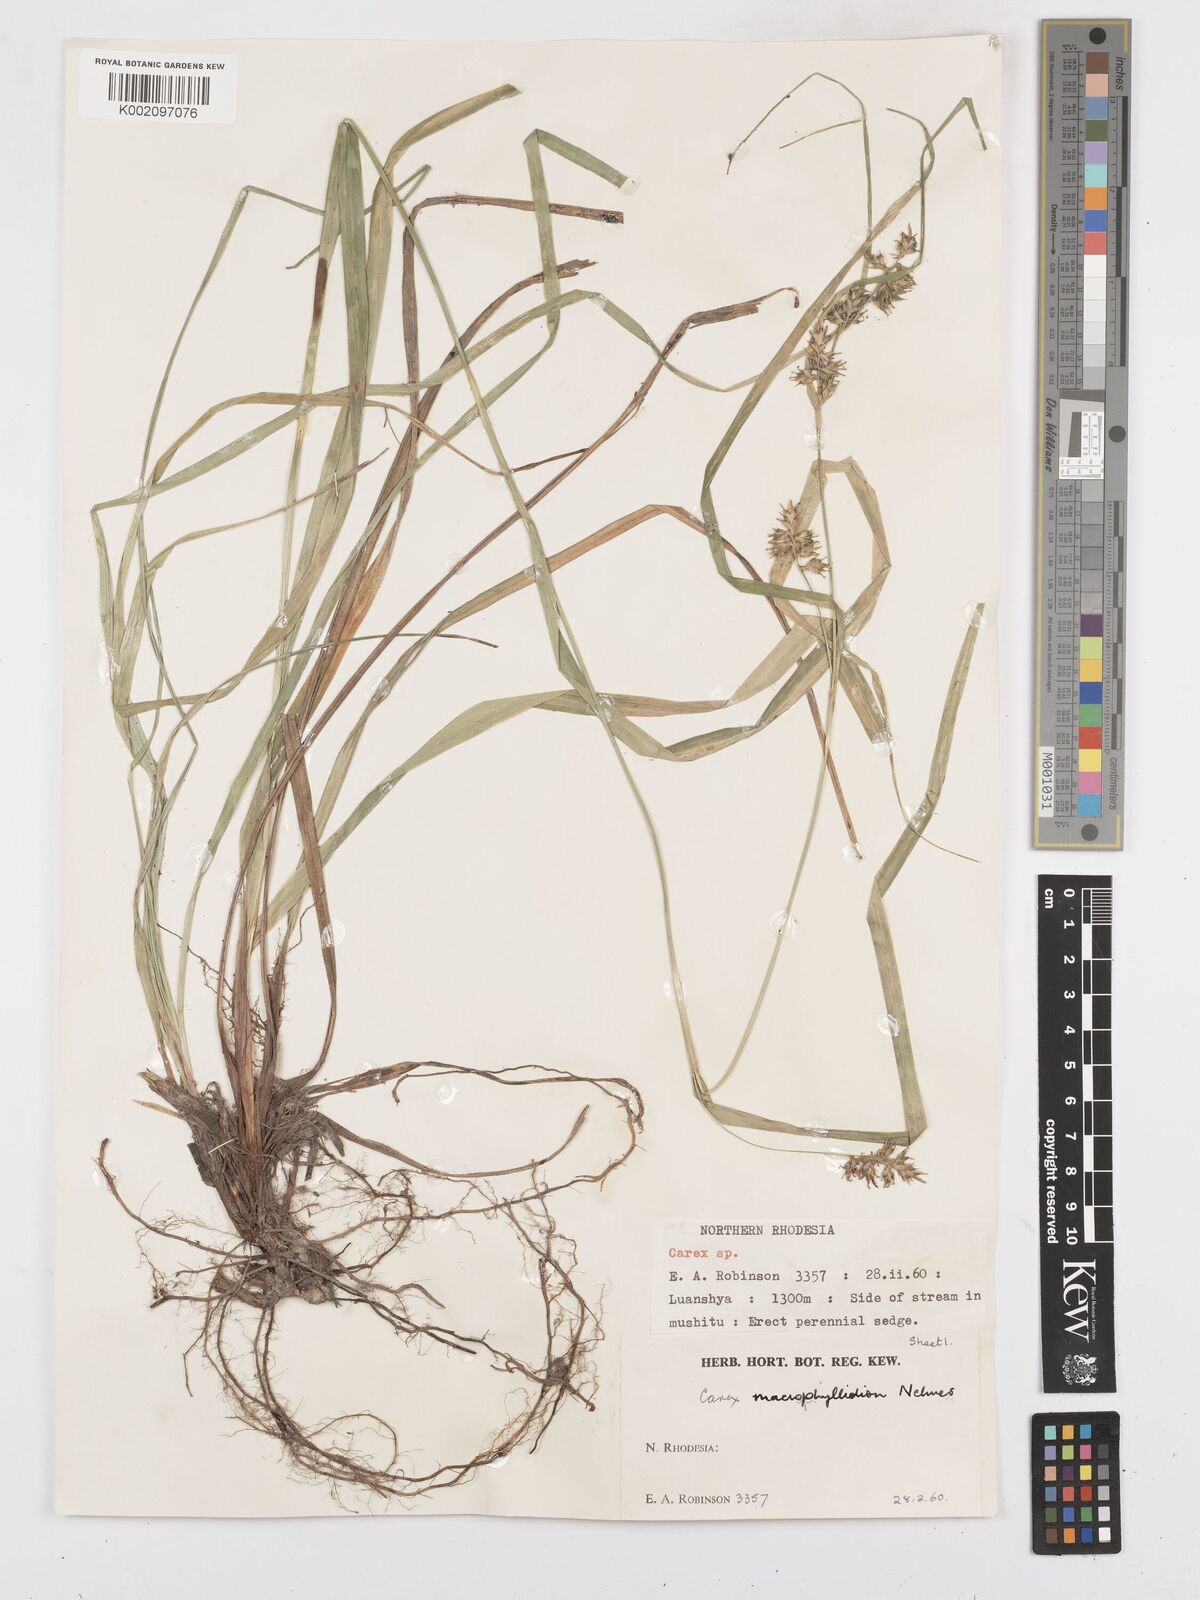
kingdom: Plantae
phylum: Tracheophyta
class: Liliopsida
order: Poales
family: Cyperaceae
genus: Carex
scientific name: Carex macrophyllidion
